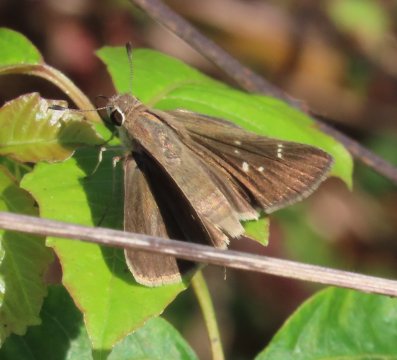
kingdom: Animalia
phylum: Arthropoda
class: Insecta
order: Lepidoptera
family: Hesperiidae
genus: Lerodea
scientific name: Lerodea eufala
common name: Eufala Skipper
